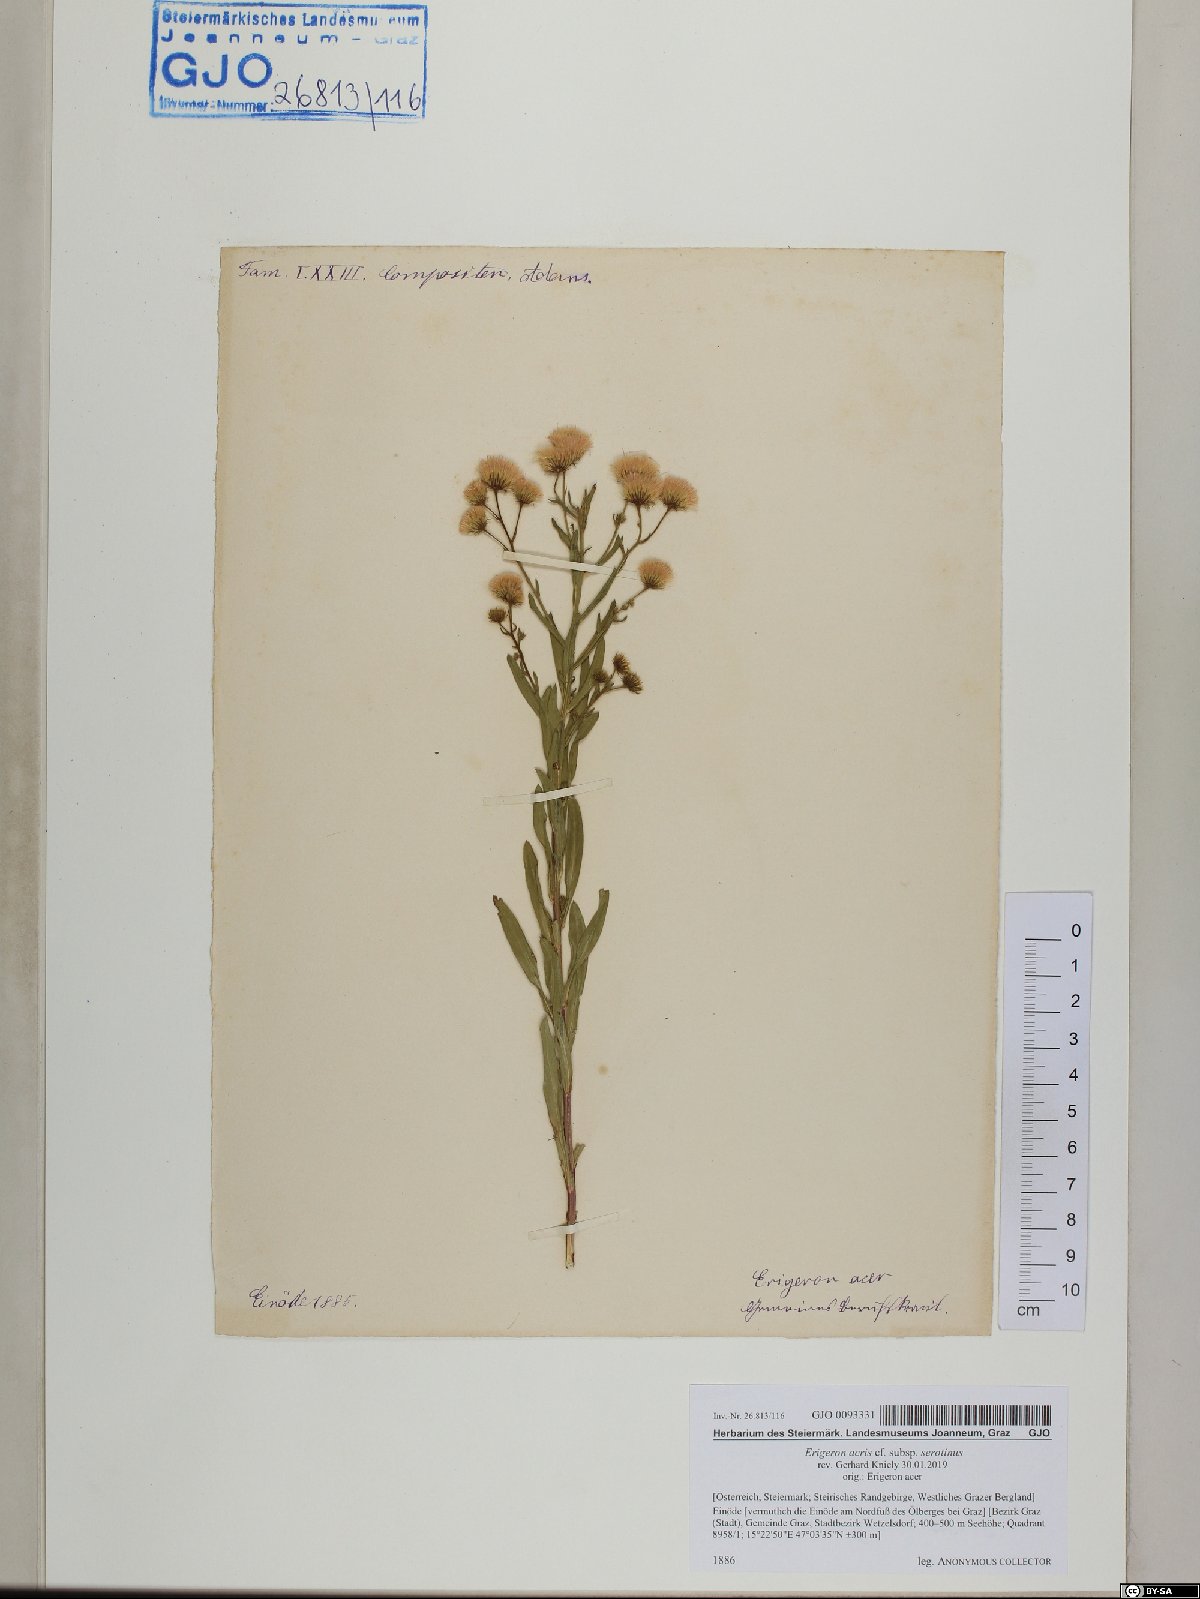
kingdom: Plantae
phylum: Tracheophyta
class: Magnoliopsida
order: Asterales
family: Asteraceae
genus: Erigeron
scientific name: Erigeron muralis
